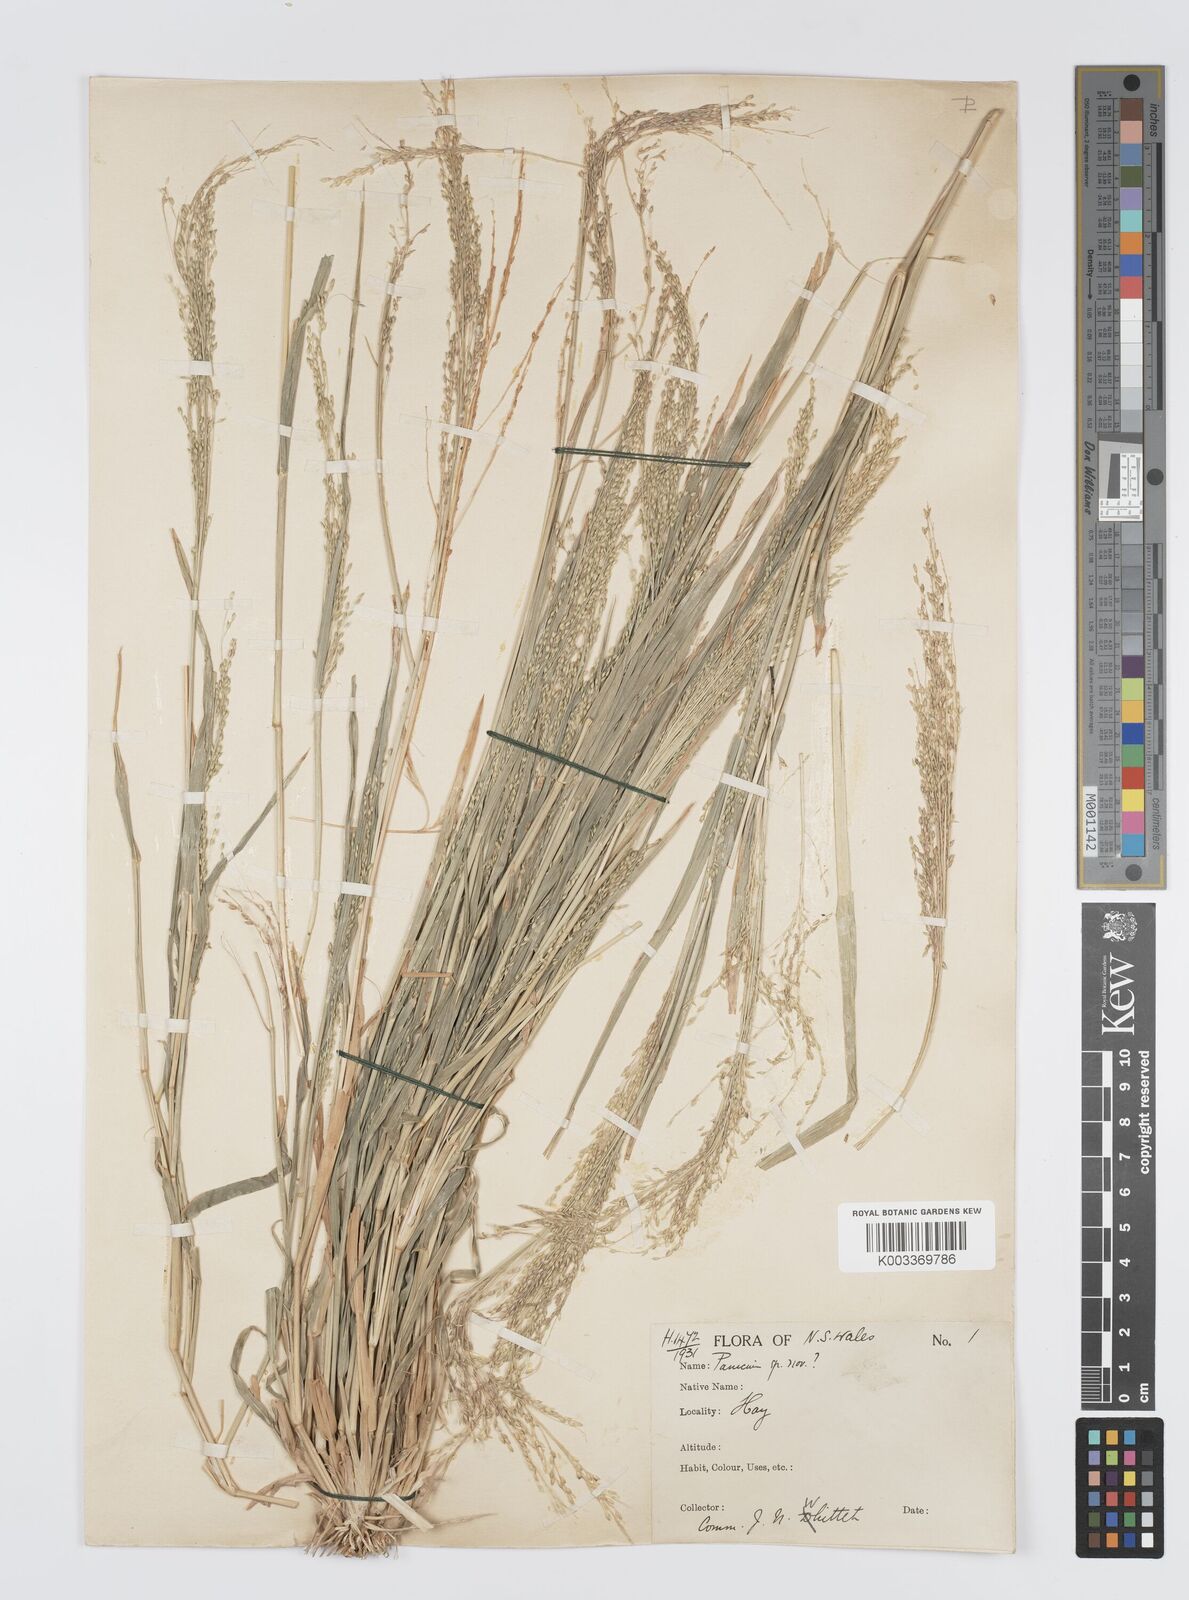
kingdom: Plantae
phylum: Tracheophyta
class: Liliopsida
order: Poales
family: Poaceae
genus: Panicum
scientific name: Panicum laevinode
